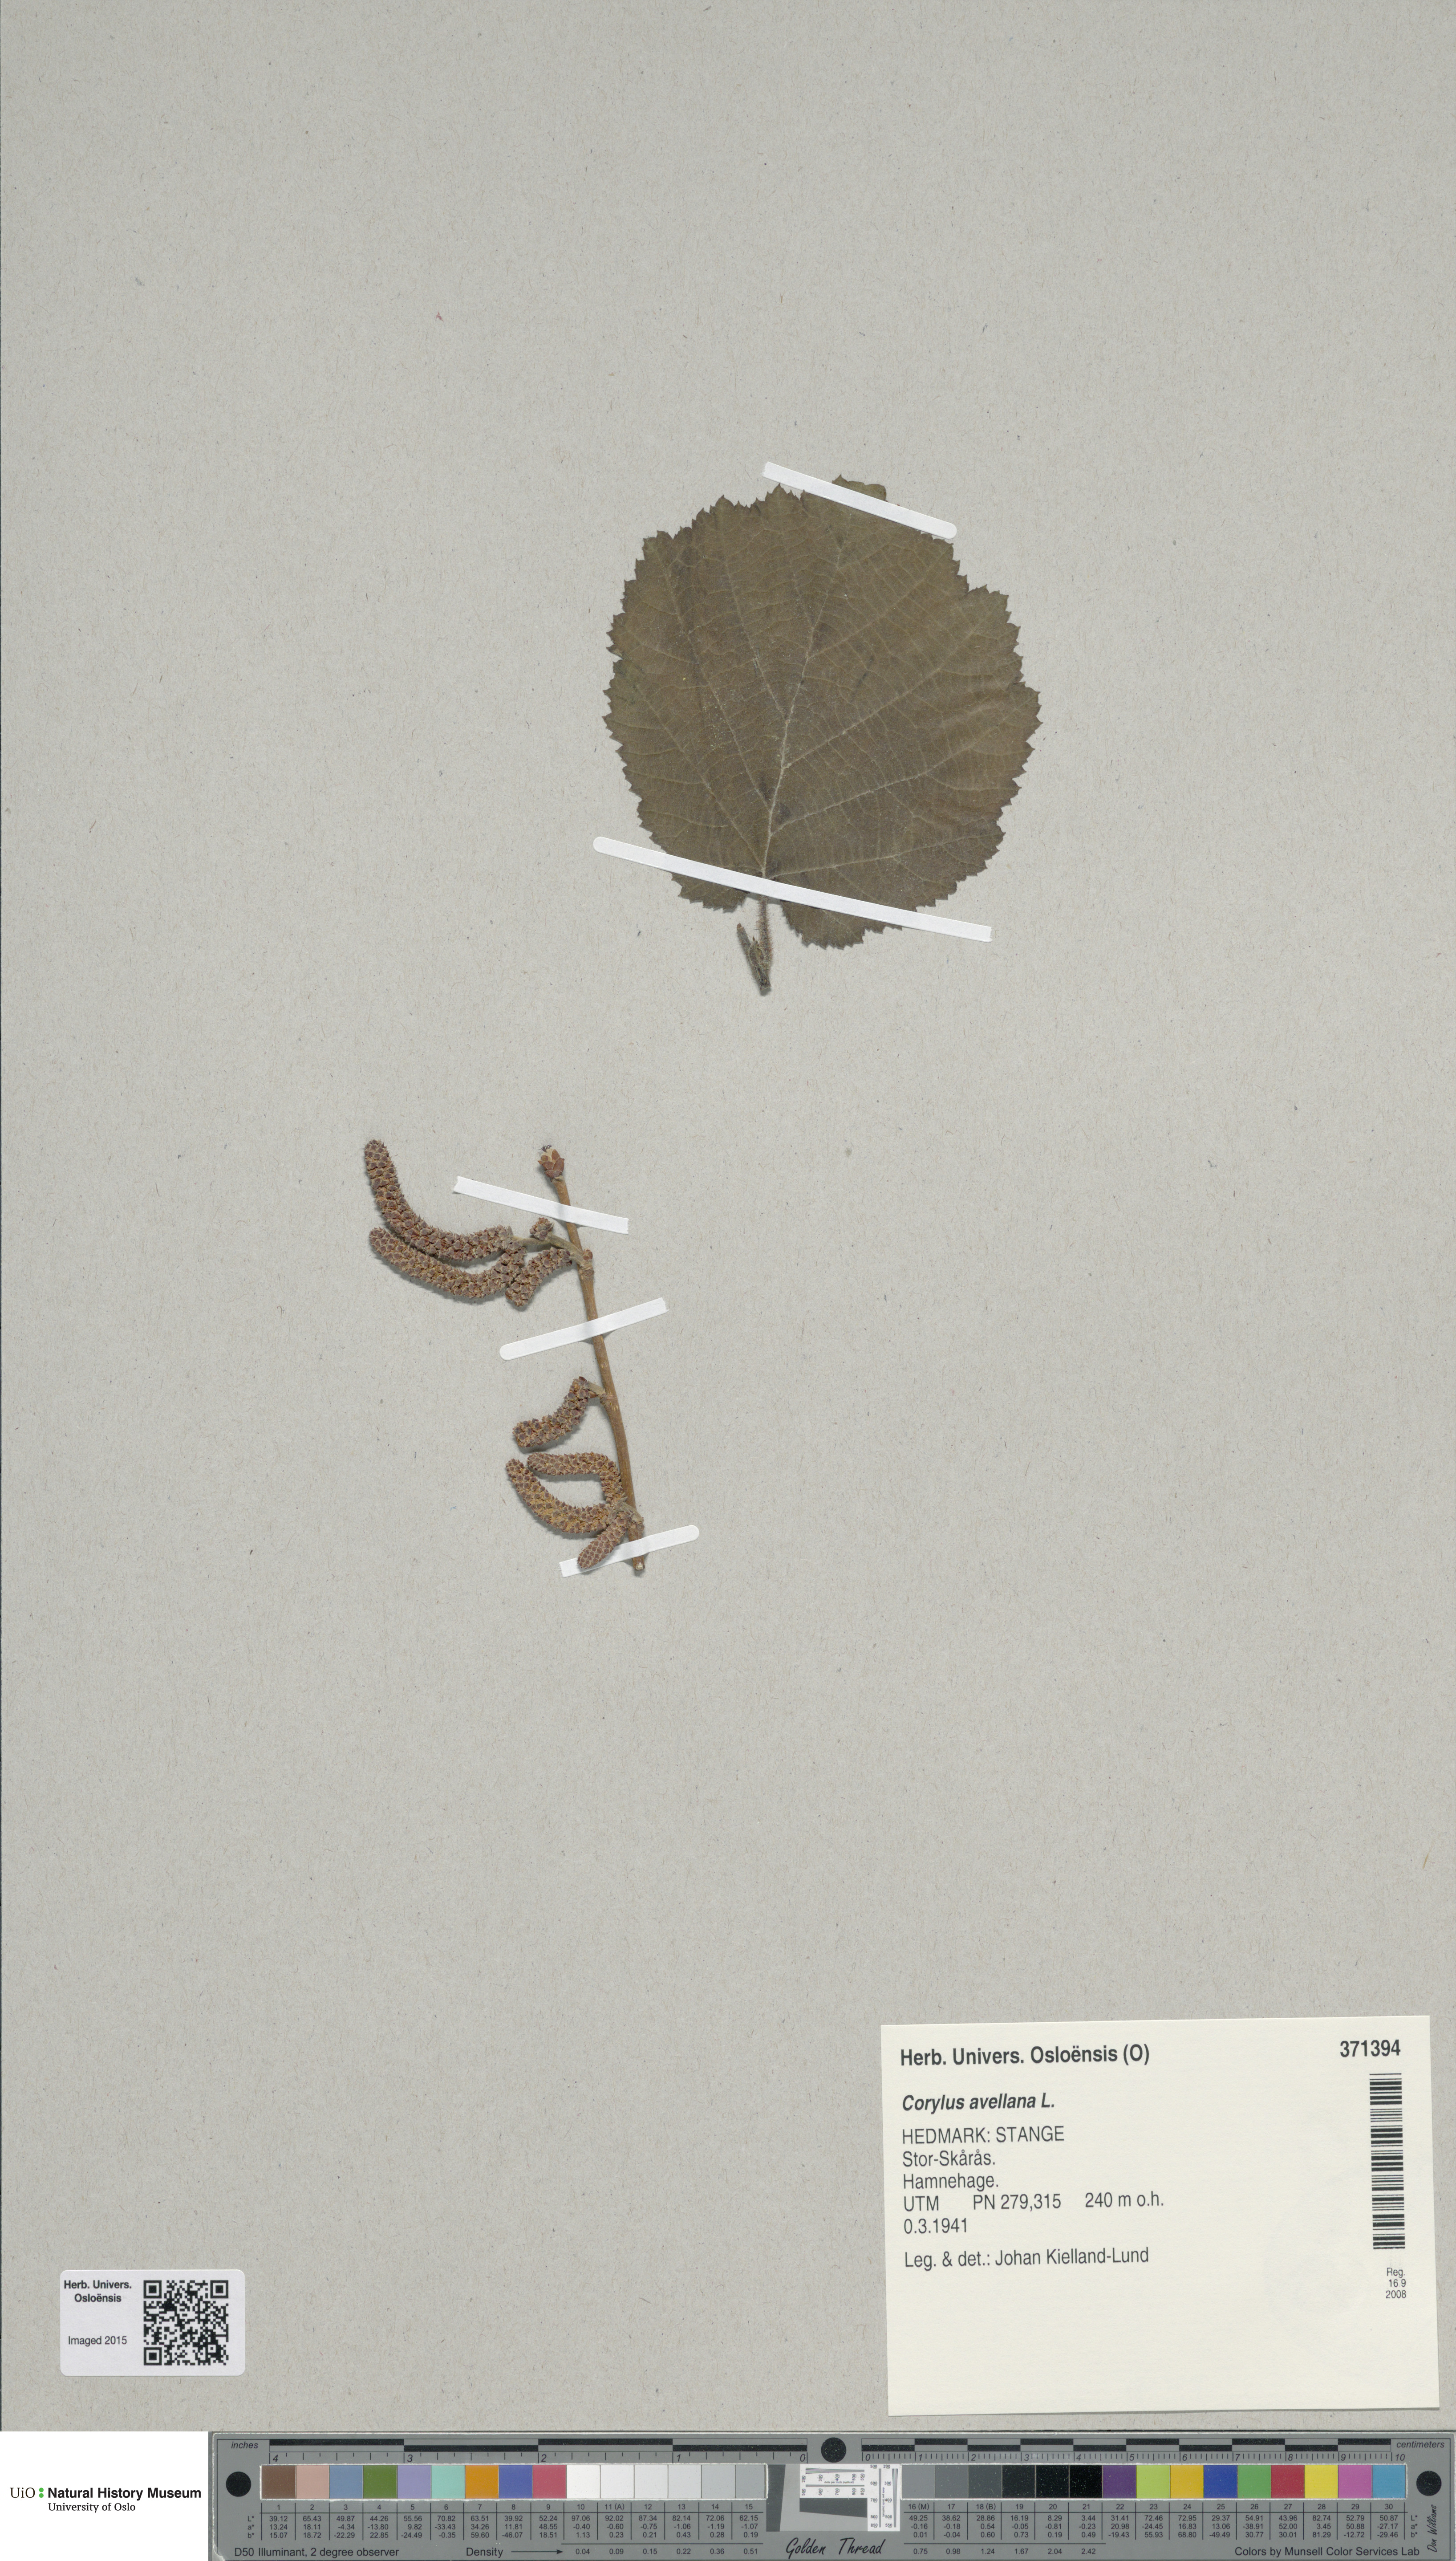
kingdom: Plantae
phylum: Tracheophyta
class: Magnoliopsida
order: Fagales
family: Betulaceae
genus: Corylus
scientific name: Corylus avellana
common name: European hazel
